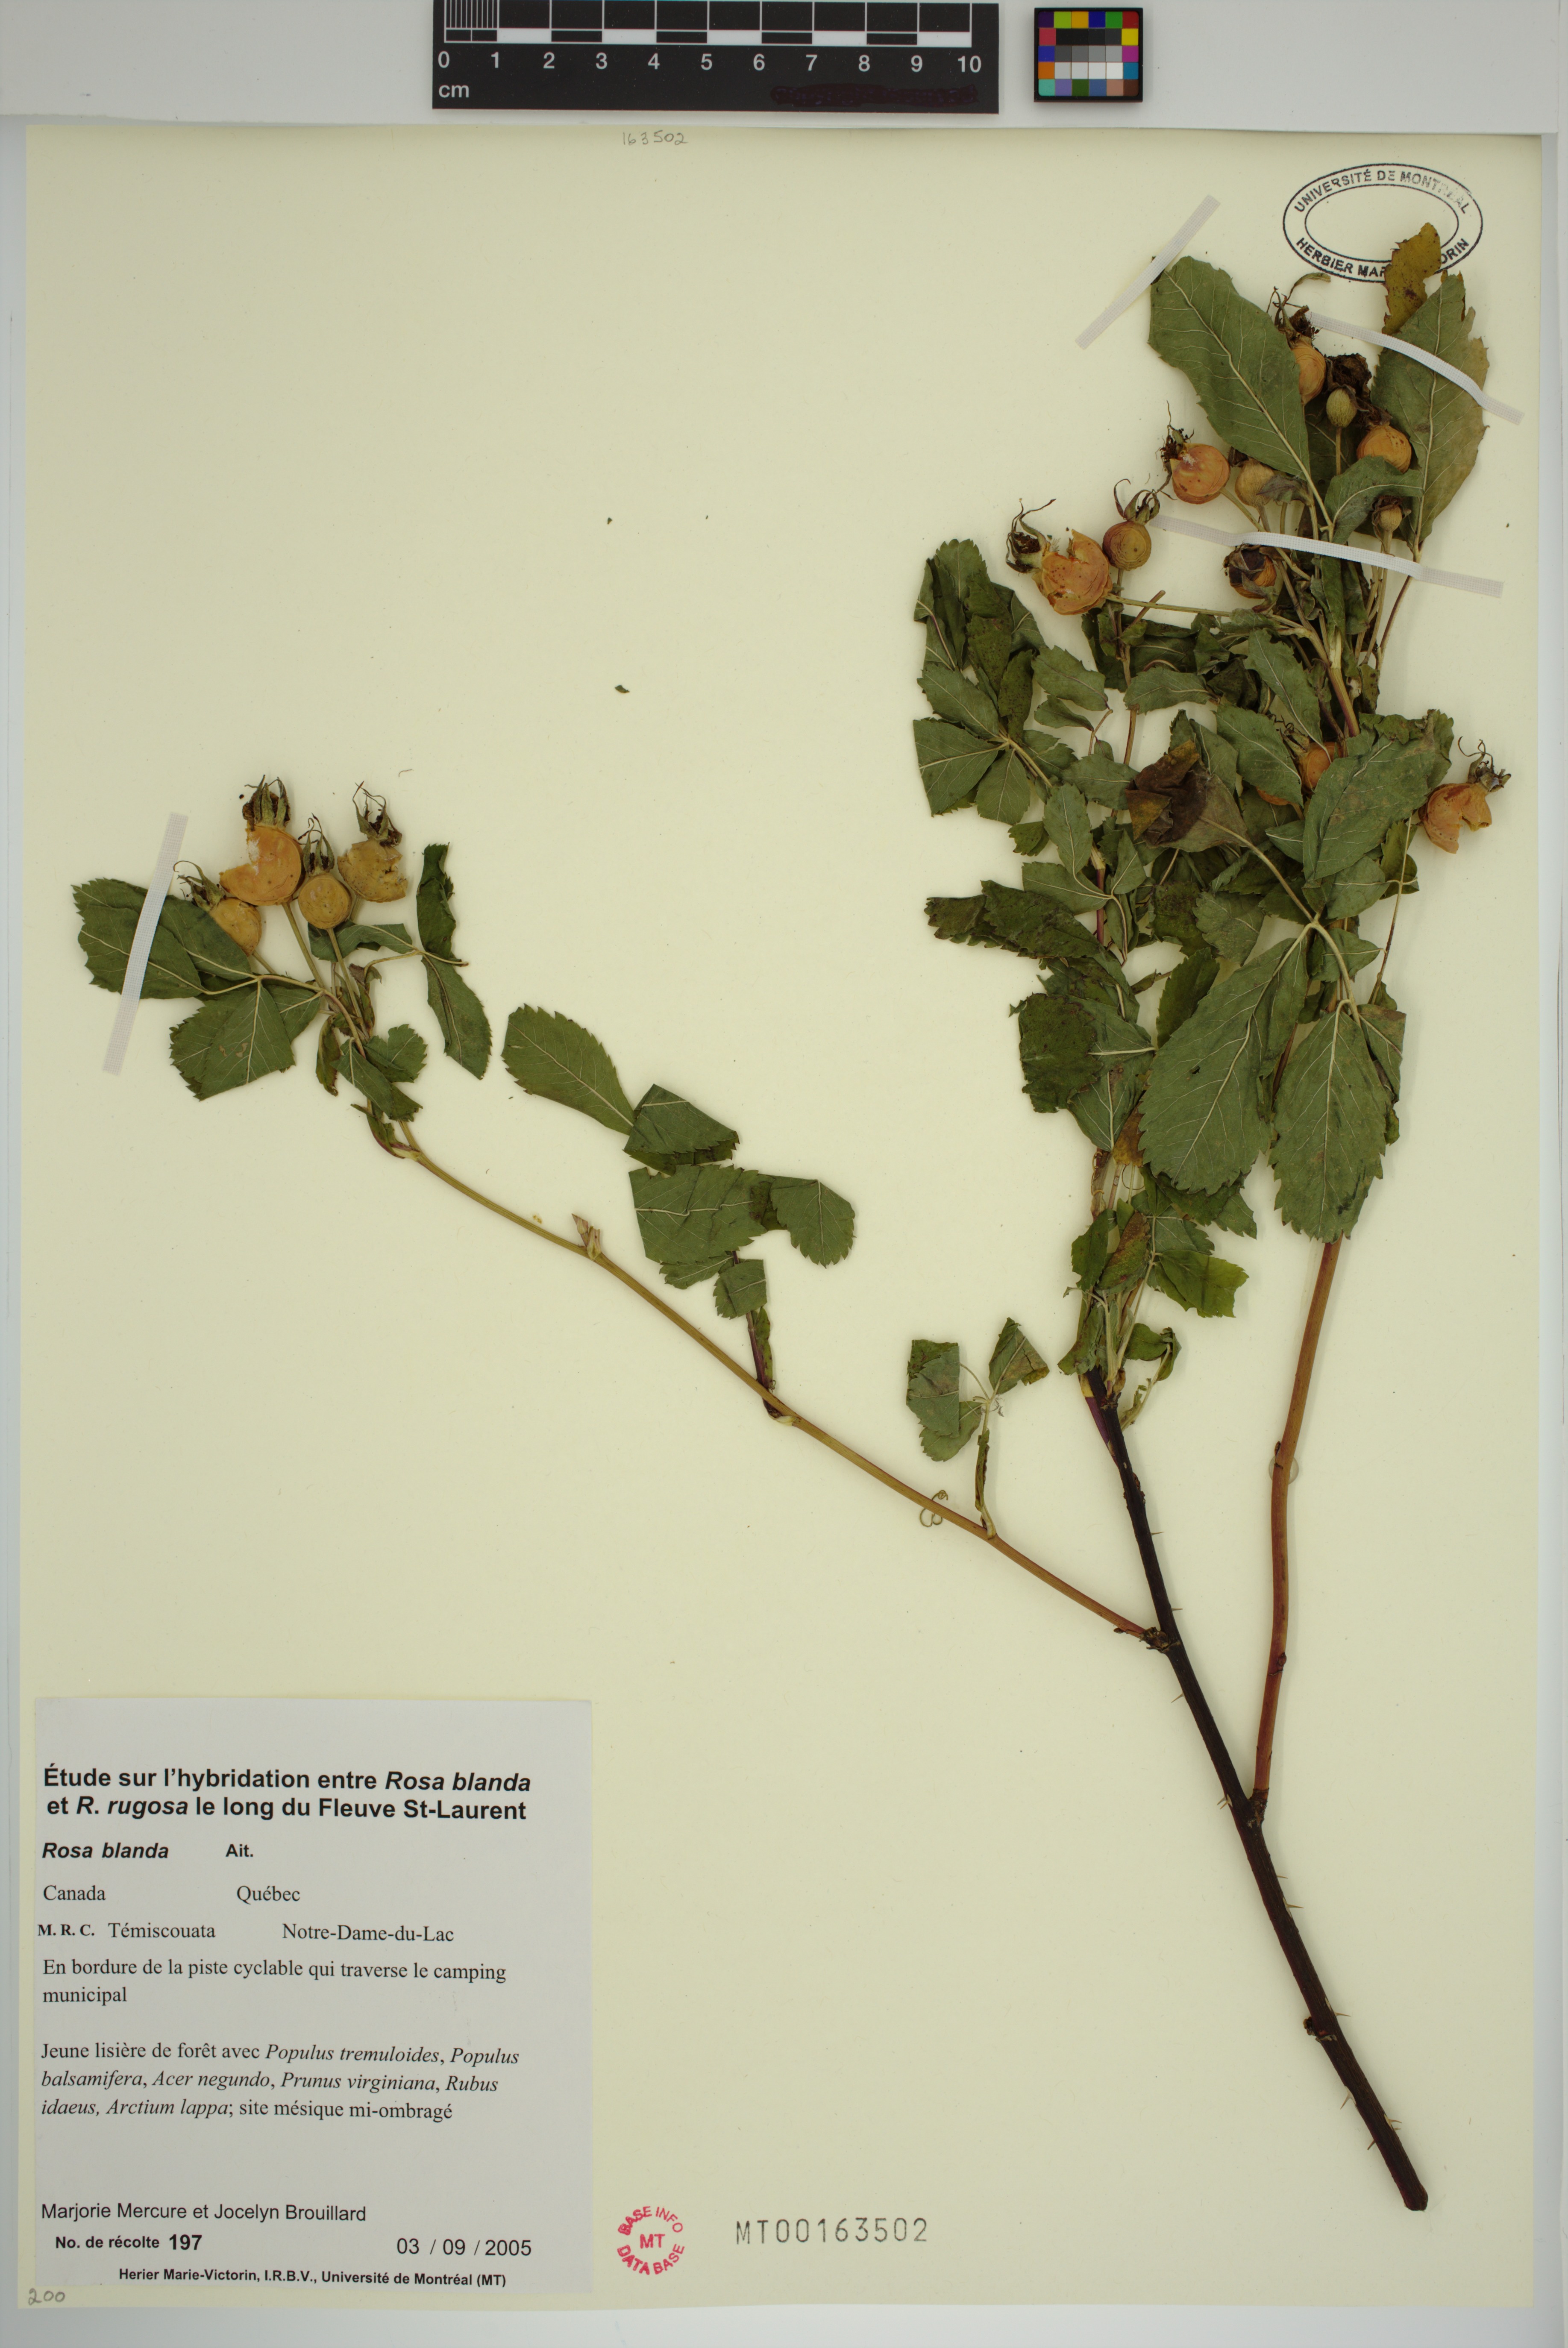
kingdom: Plantae
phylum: Tracheophyta
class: Magnoliopsida
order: Rosales
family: Rosaceae
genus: Rosa
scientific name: Rosa blanda
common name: Smooth rose
